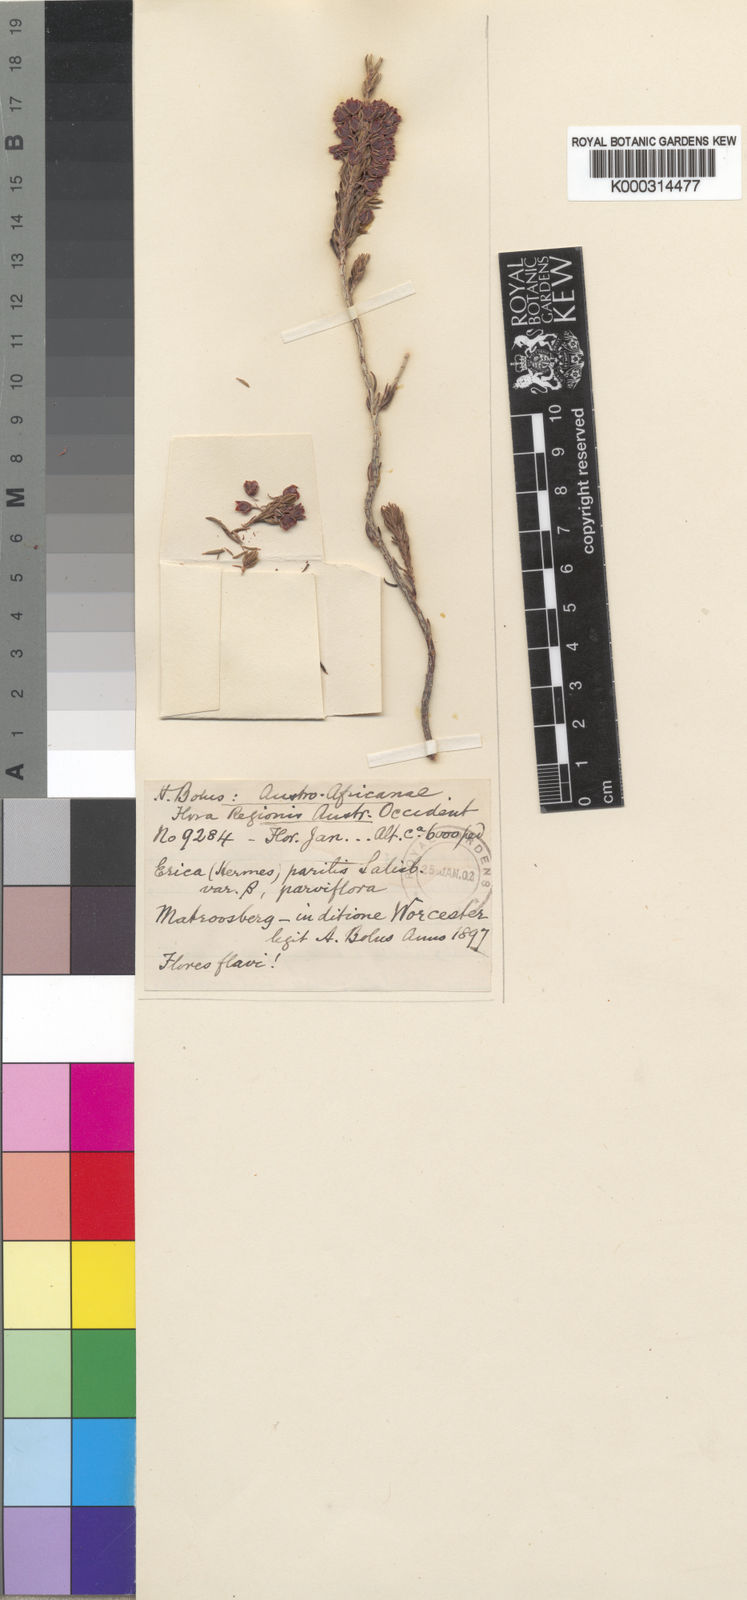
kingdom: Plantae
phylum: Tracheophyta
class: Magnoliopsida
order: Ericales
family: Ericaceae
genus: Erica
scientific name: Erica parilis
